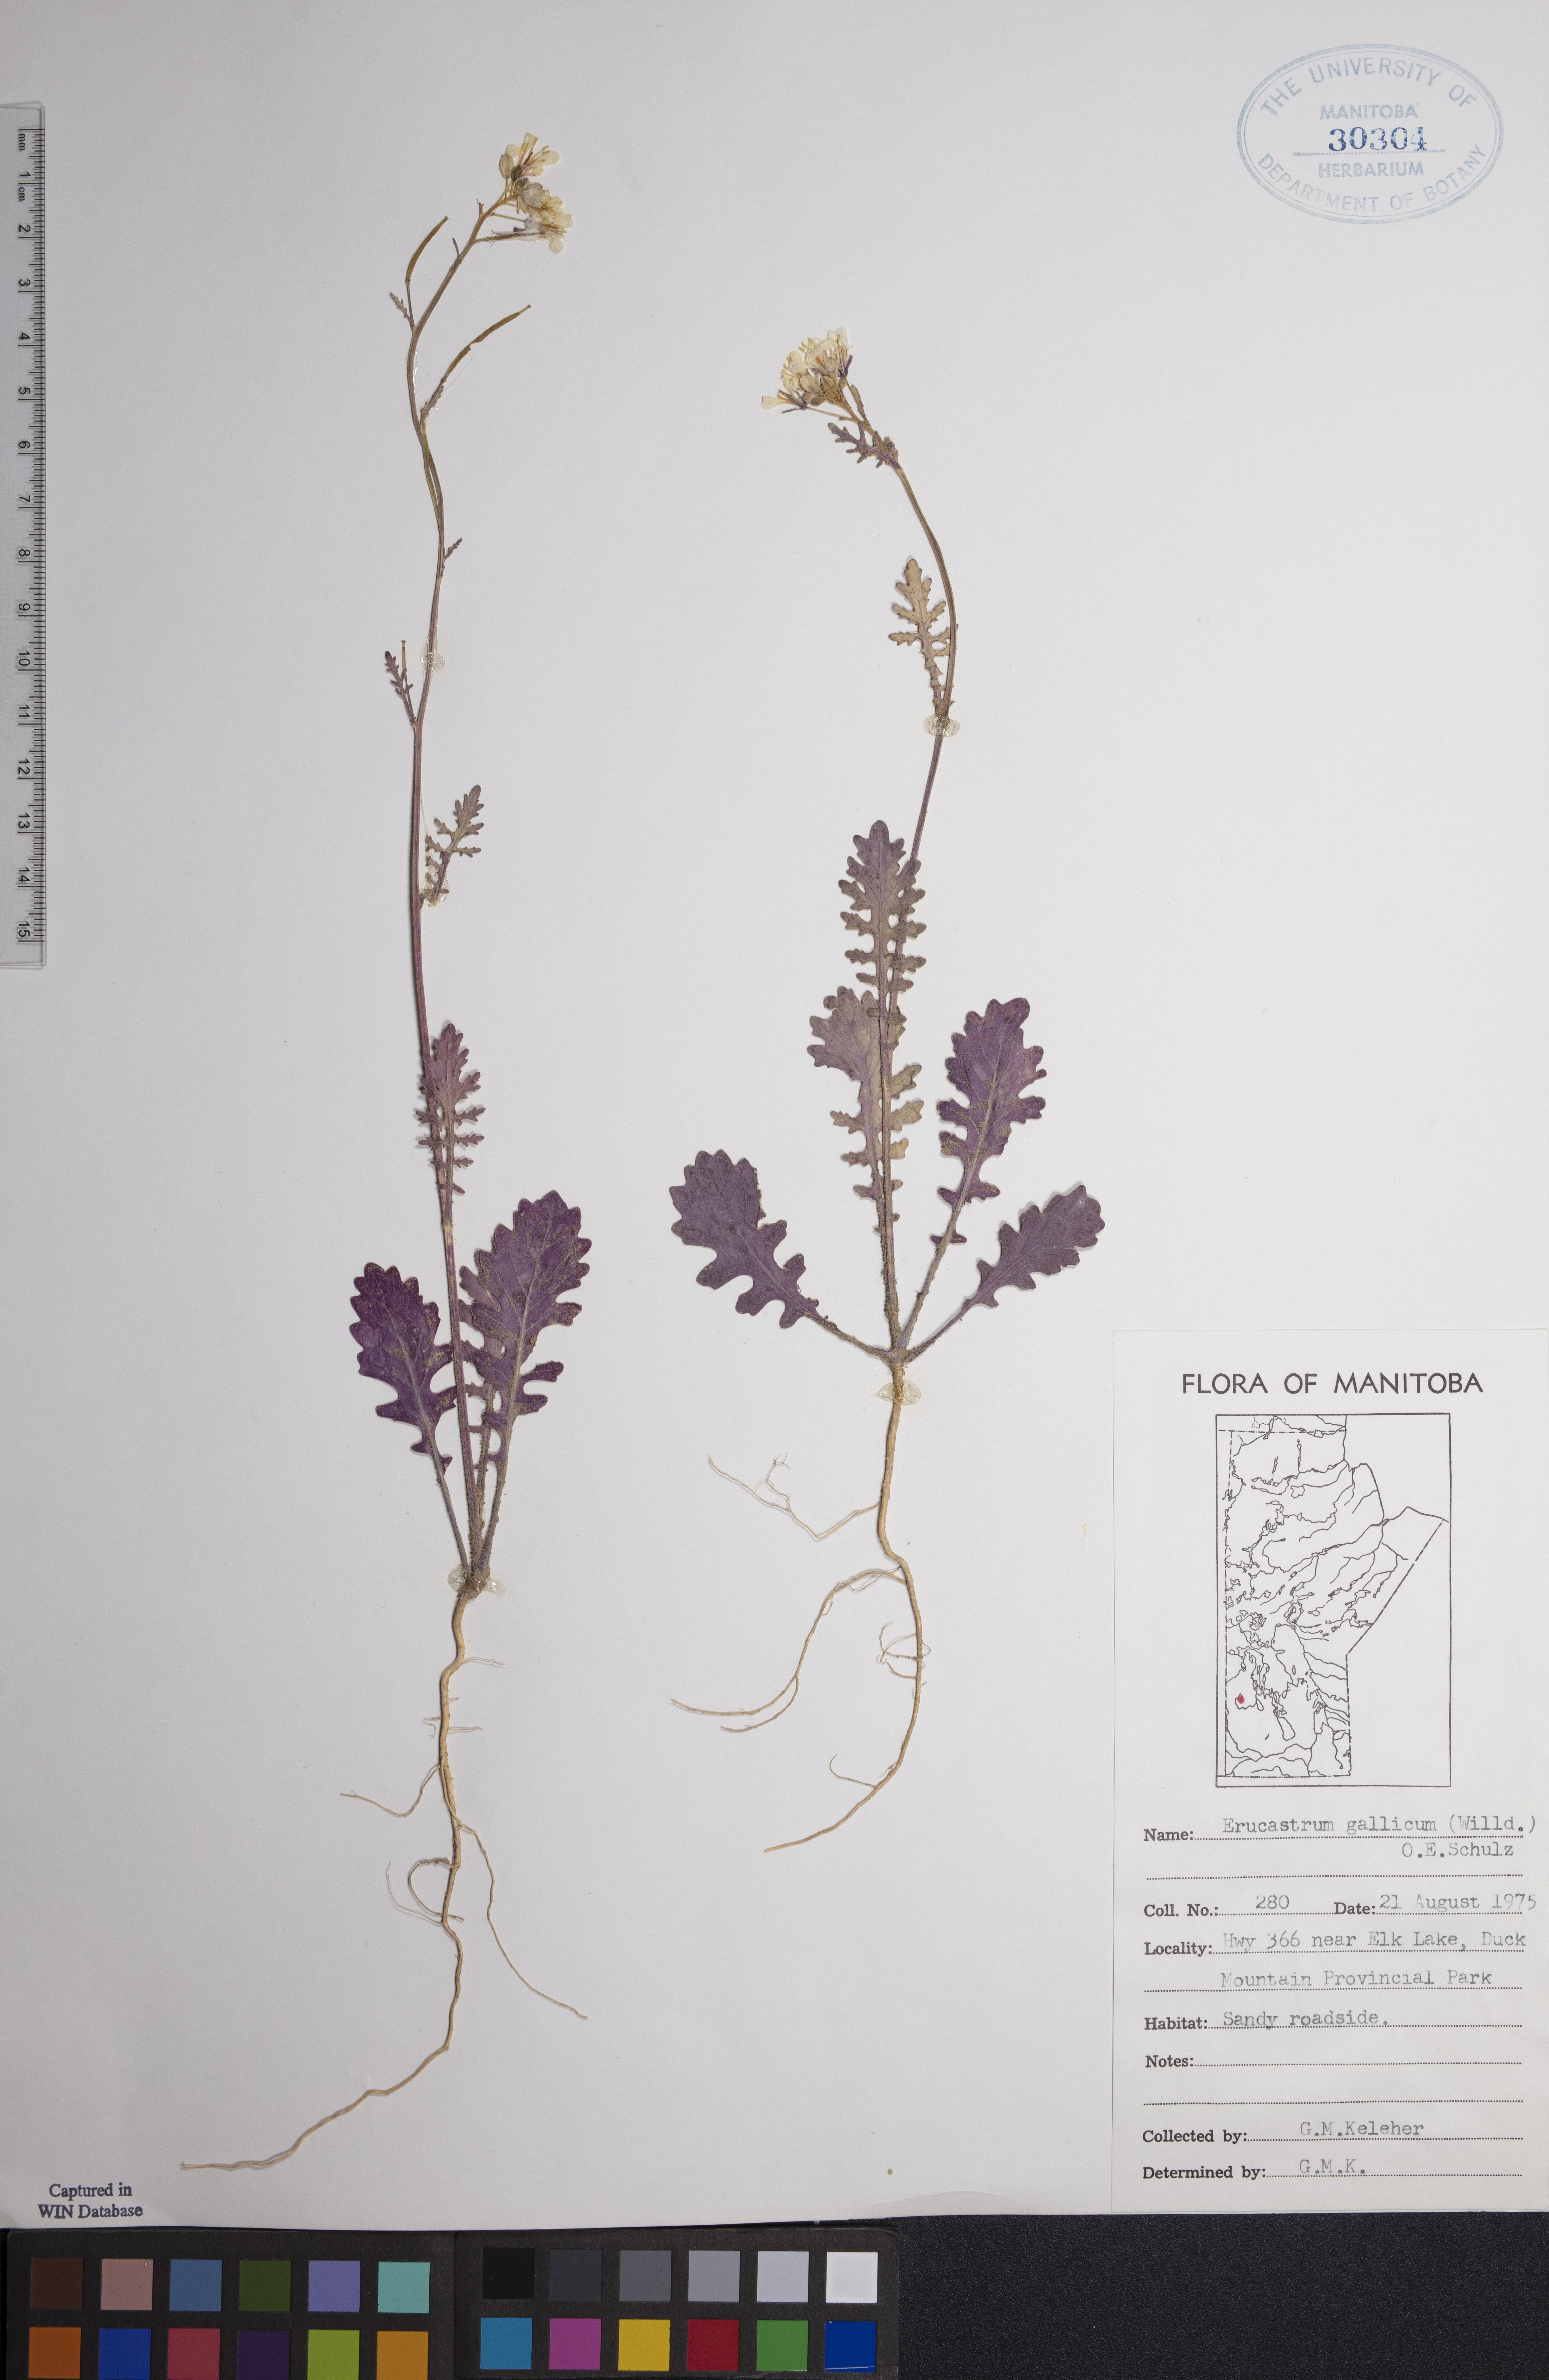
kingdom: Plantae
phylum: Tracheophyta
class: Magnoliopsida
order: Brassicales
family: Brassicaceae
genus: Erucastrum
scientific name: Erucastrum gallicum
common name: Hairy rocket
